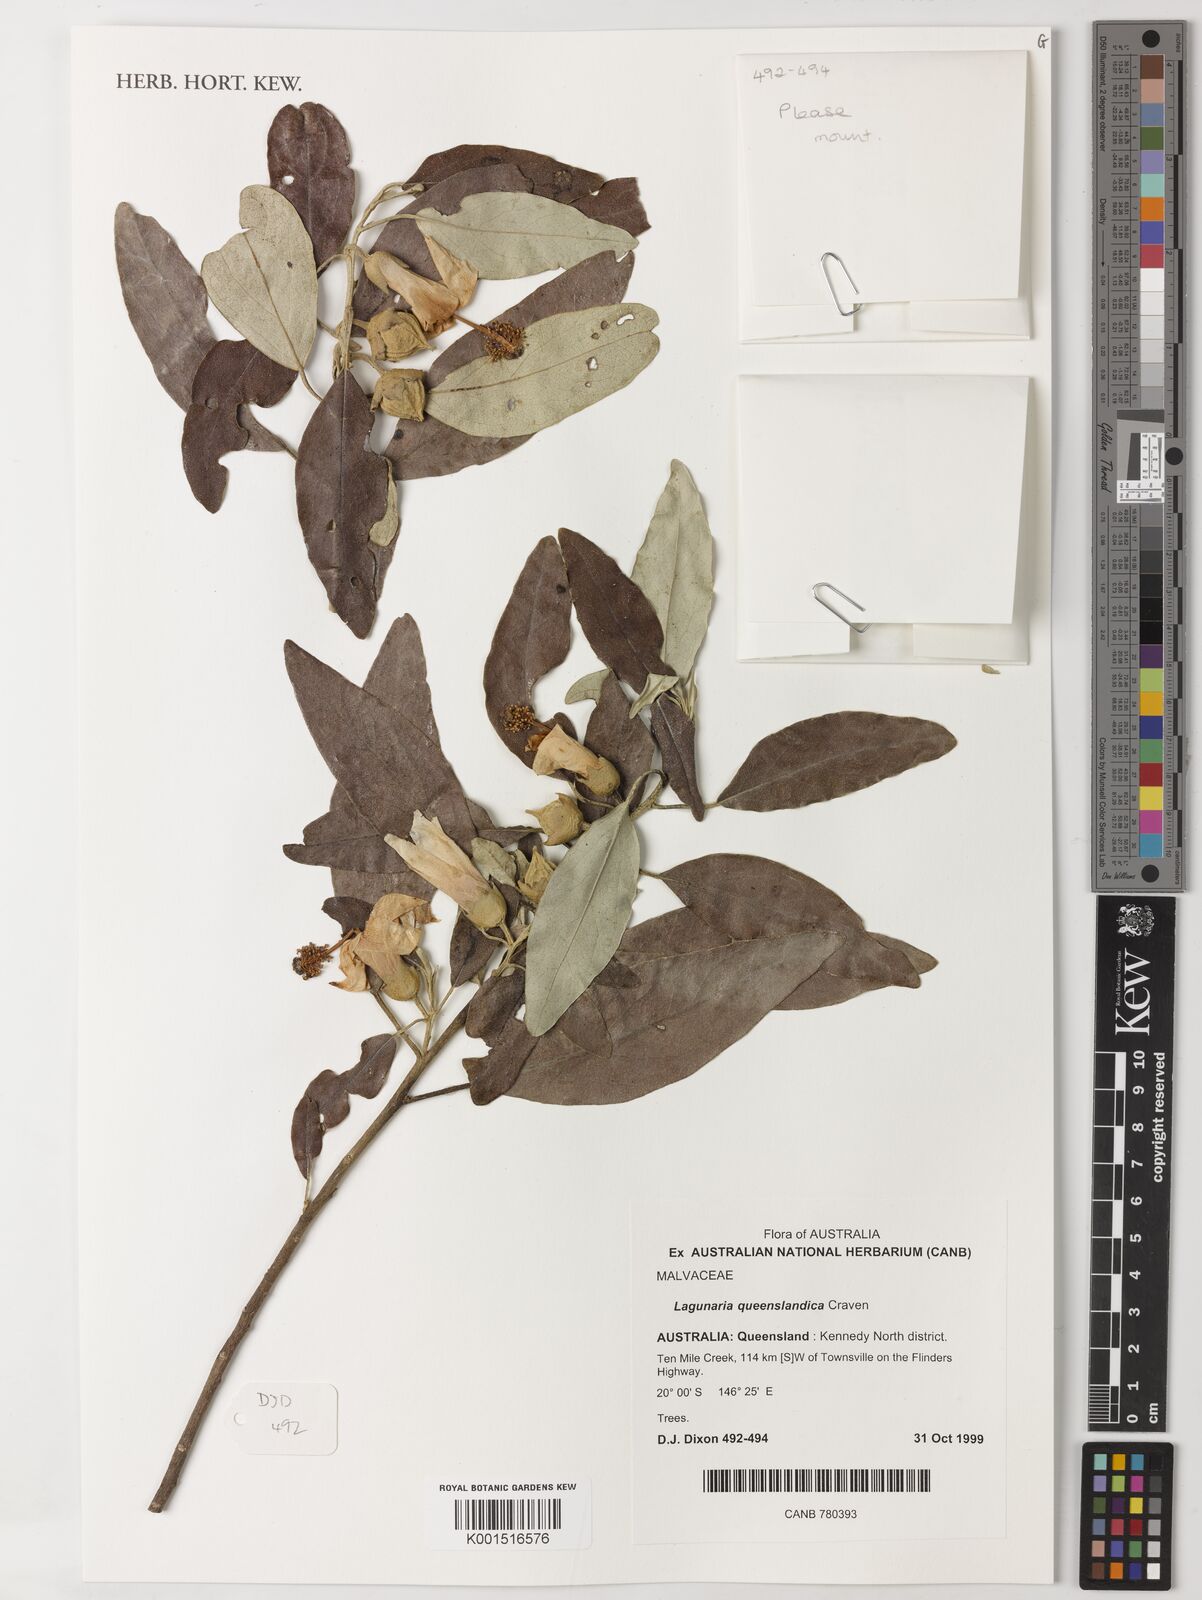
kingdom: Plantae
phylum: Tracheophyta
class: Magnoliopsida
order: Malvales
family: Malvaceae
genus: Lagunaria
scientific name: Lagunaria queenslandica
